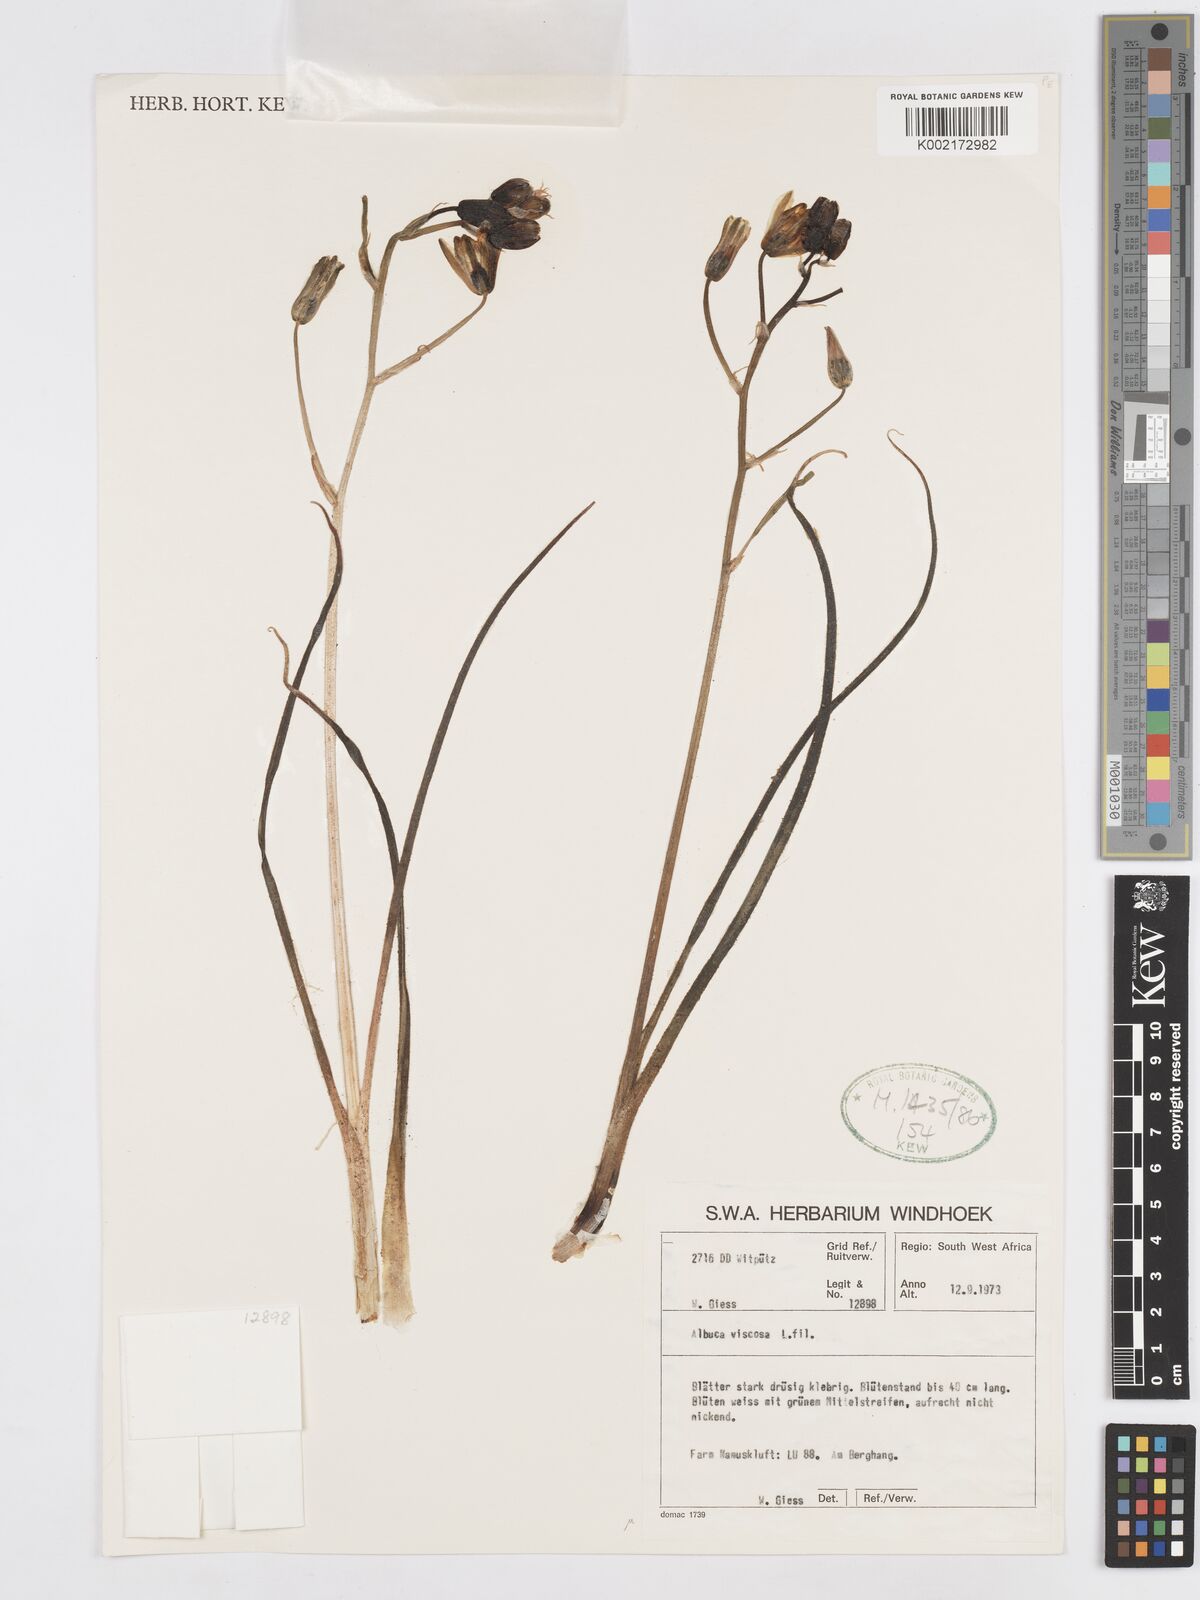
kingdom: Plantae
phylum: Tracheophyta
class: Liliopsida
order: Asparagales
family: Asparagaceae
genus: Albuca
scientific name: Albuca viscosa
